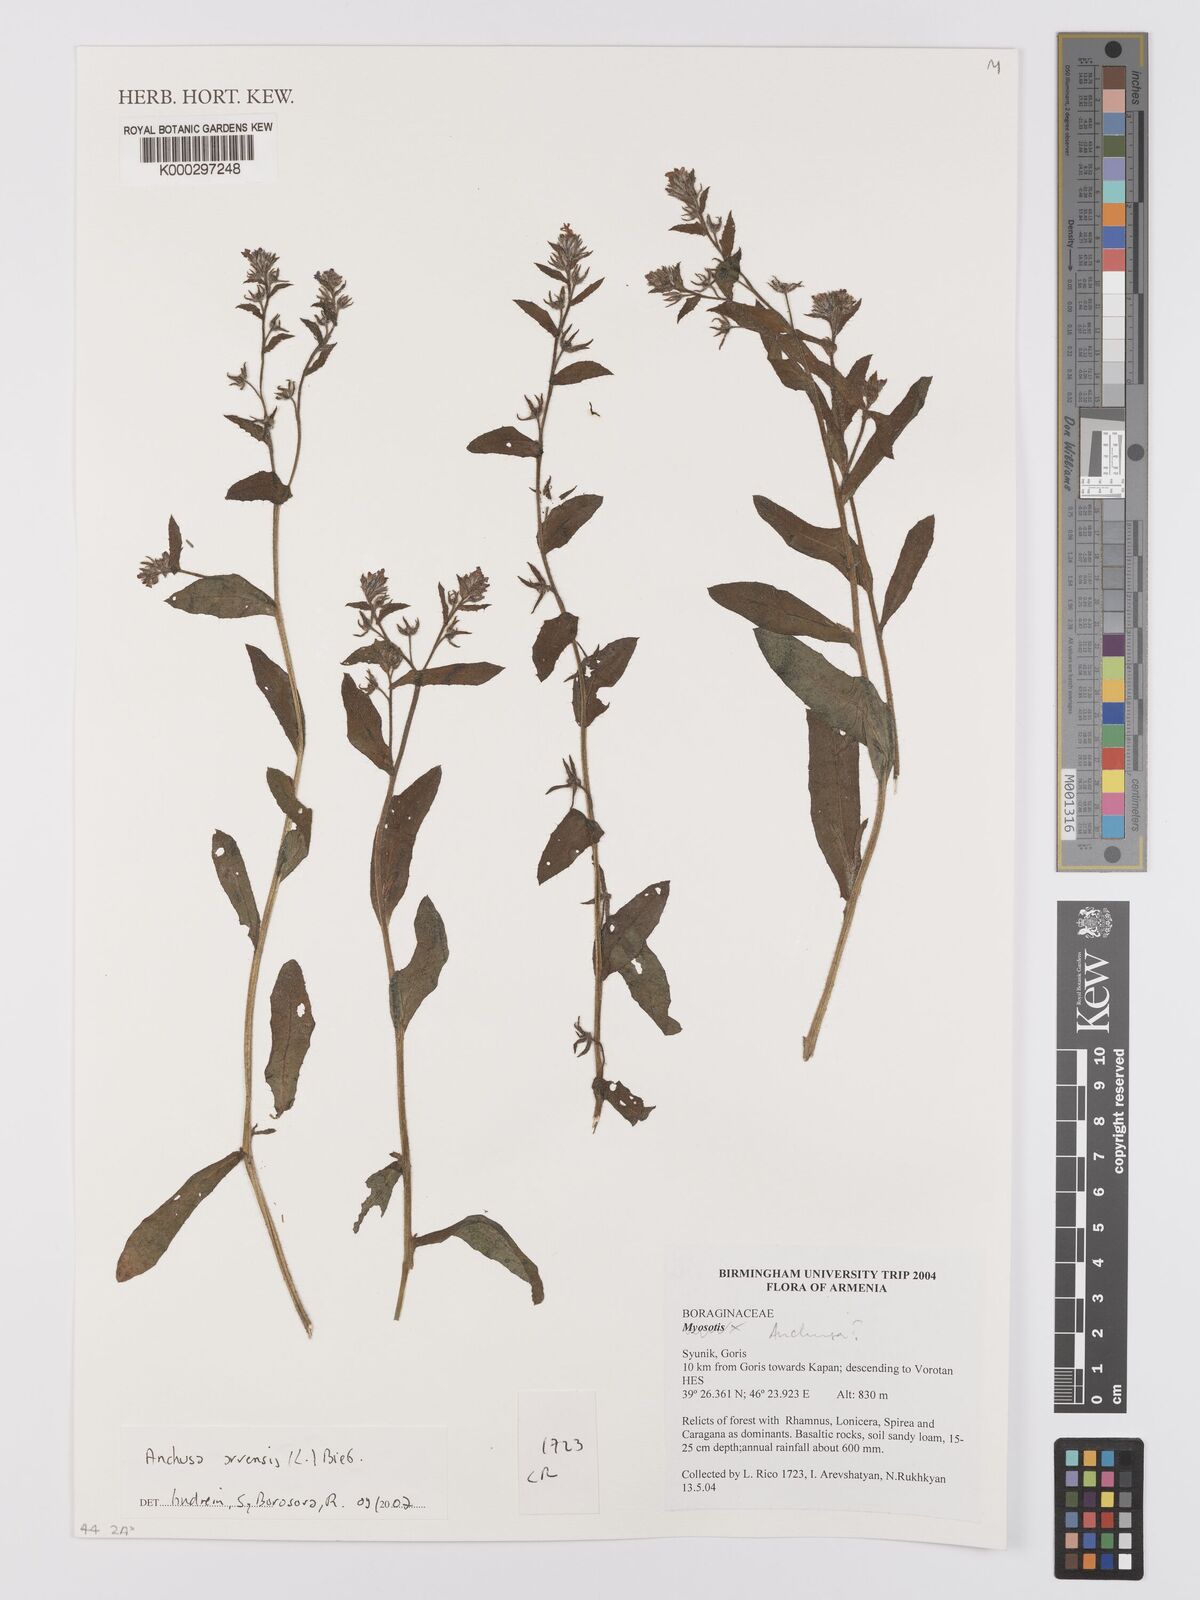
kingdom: Plantae
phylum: Tracheophyta
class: Magnoliopsida
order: Boraginales
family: Boraginaceae
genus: Nonea
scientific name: Nonea melanocarpa
